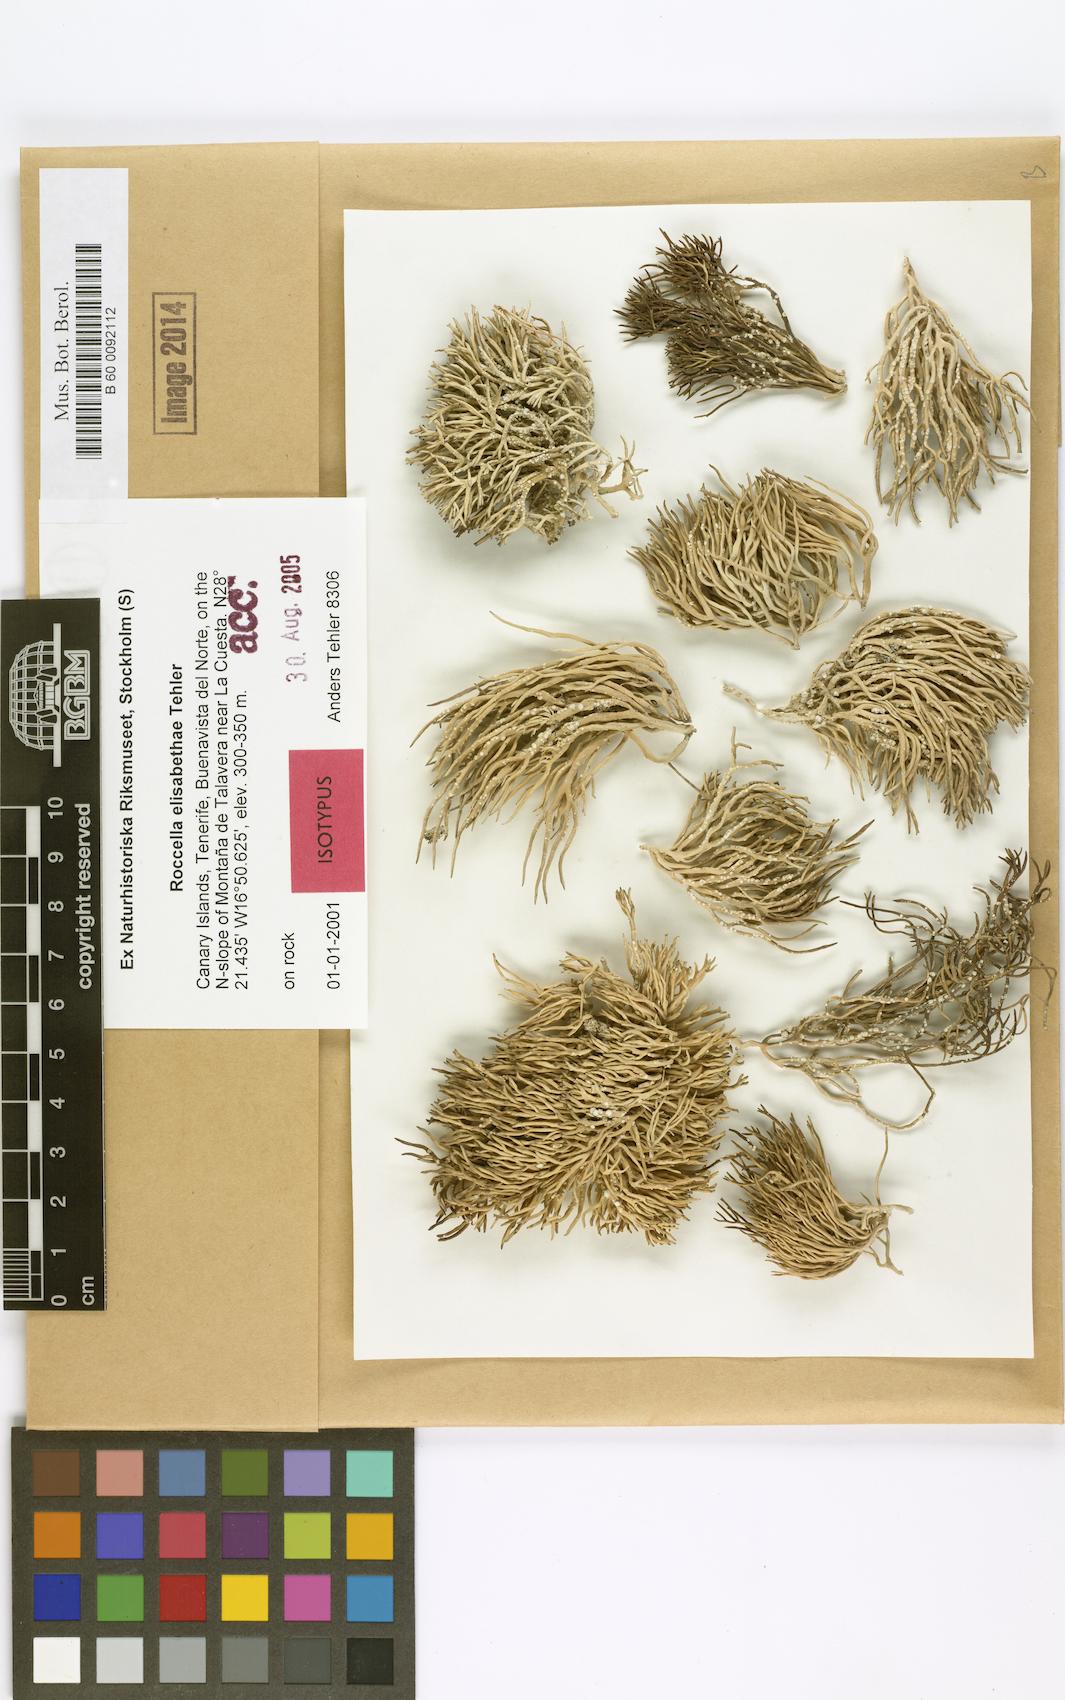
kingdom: Fungi
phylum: Ascomycota
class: Arthoniomycetes
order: Arthoniales
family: Roccellaceae
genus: Roccella
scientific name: Roccella elisabethae
